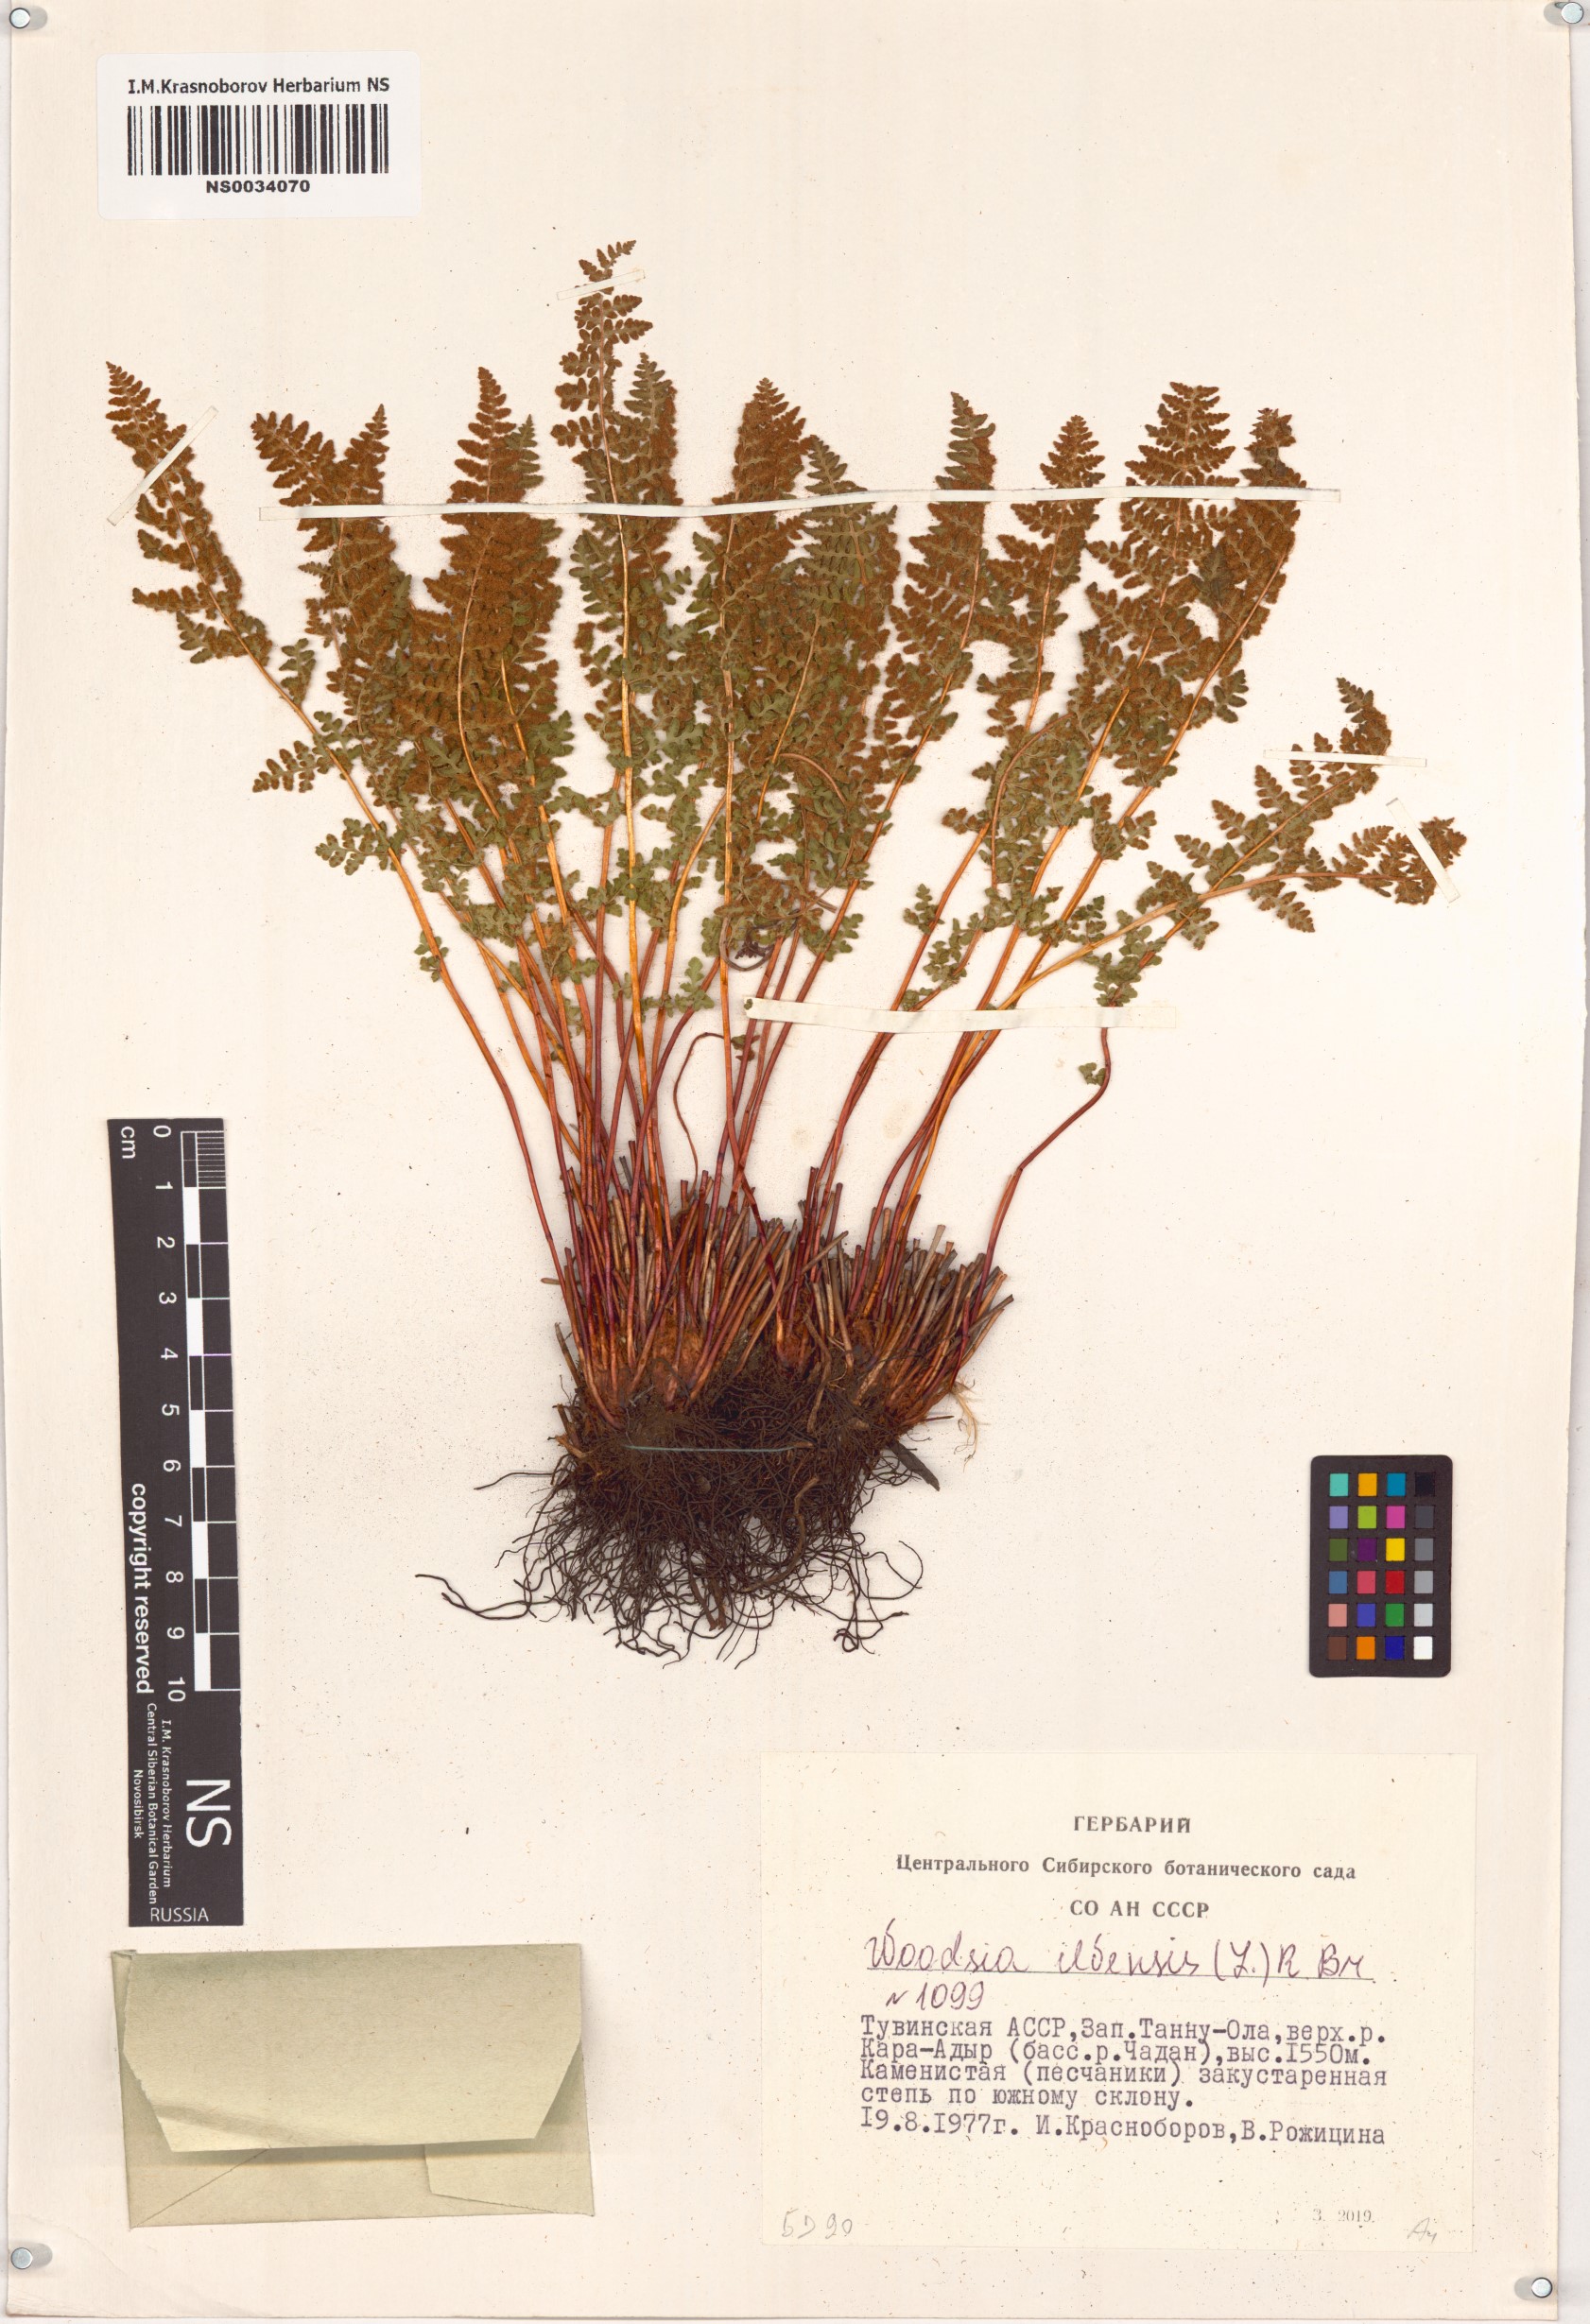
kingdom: Plantae
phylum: Tracheophyta
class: Polypodiopsida
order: Polypodiales
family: Woodsiaceae
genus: Woodsia
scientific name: Woodsia ilvensis
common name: Fragrant woodsia
